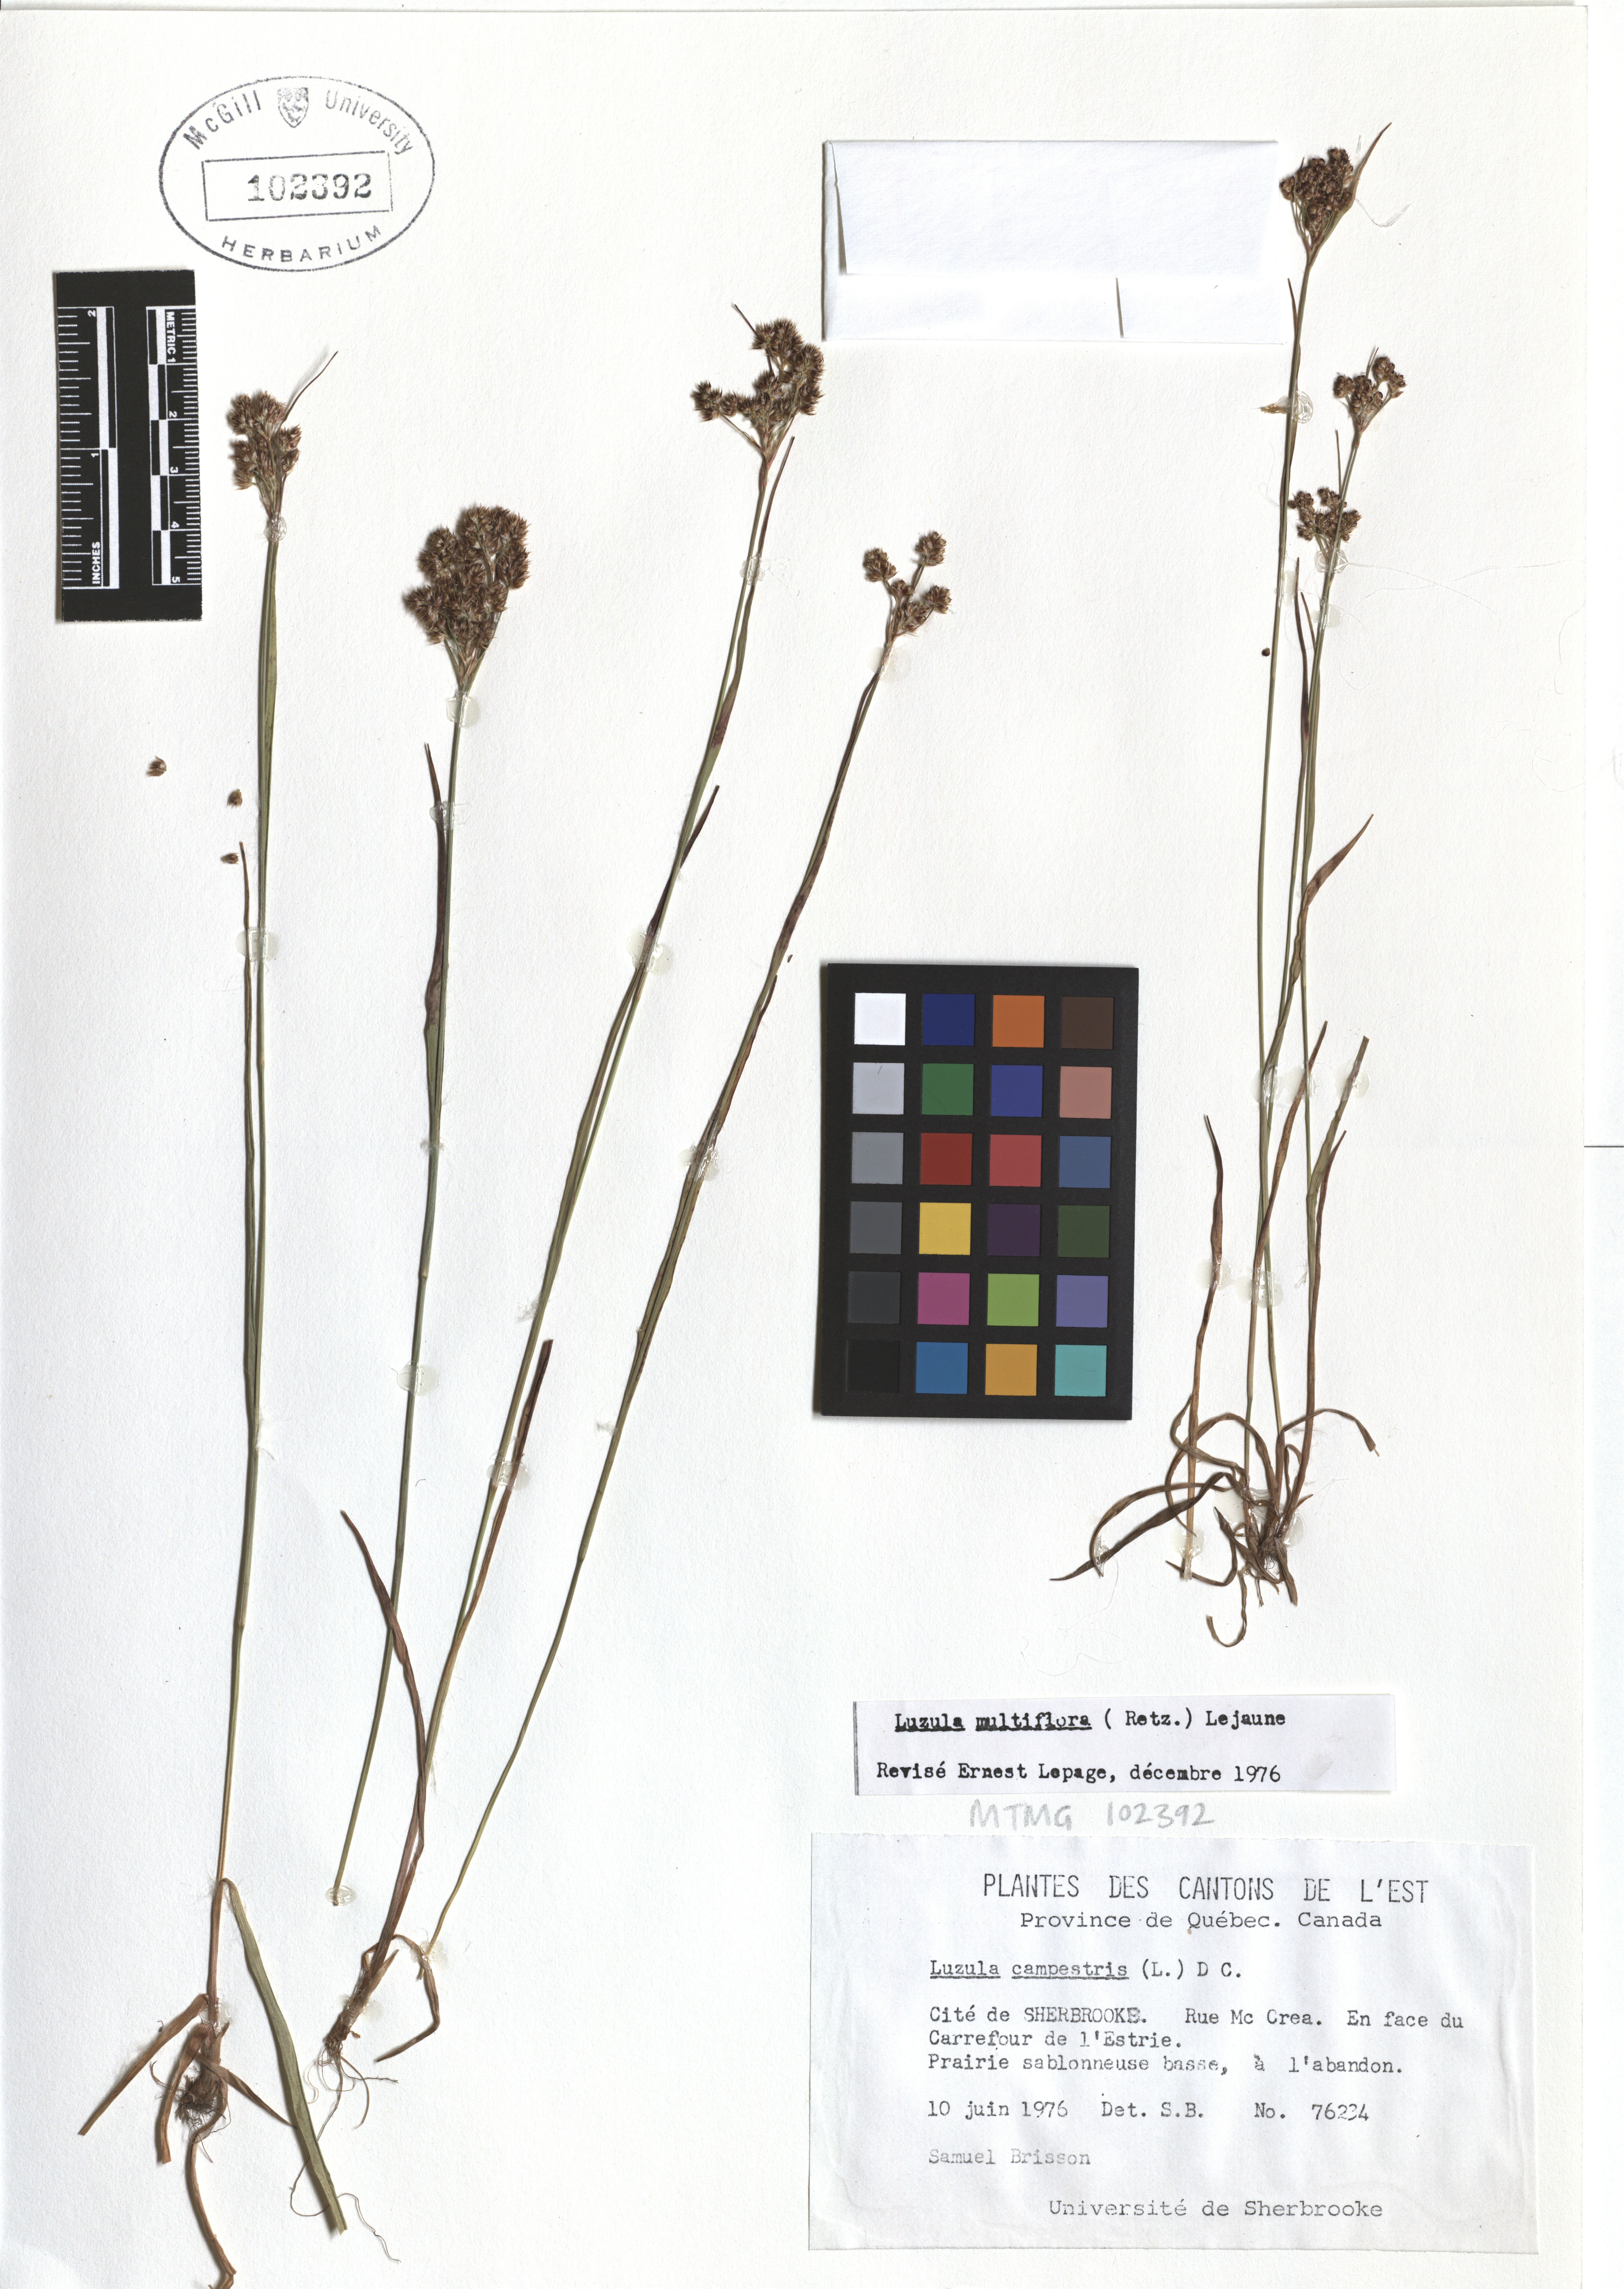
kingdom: Plantae
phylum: Tracheophyta
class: Liliopsida
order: Poales
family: Juncaceae
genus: Luzula
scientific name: Luzula multiflora
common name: Heath wood-rush
